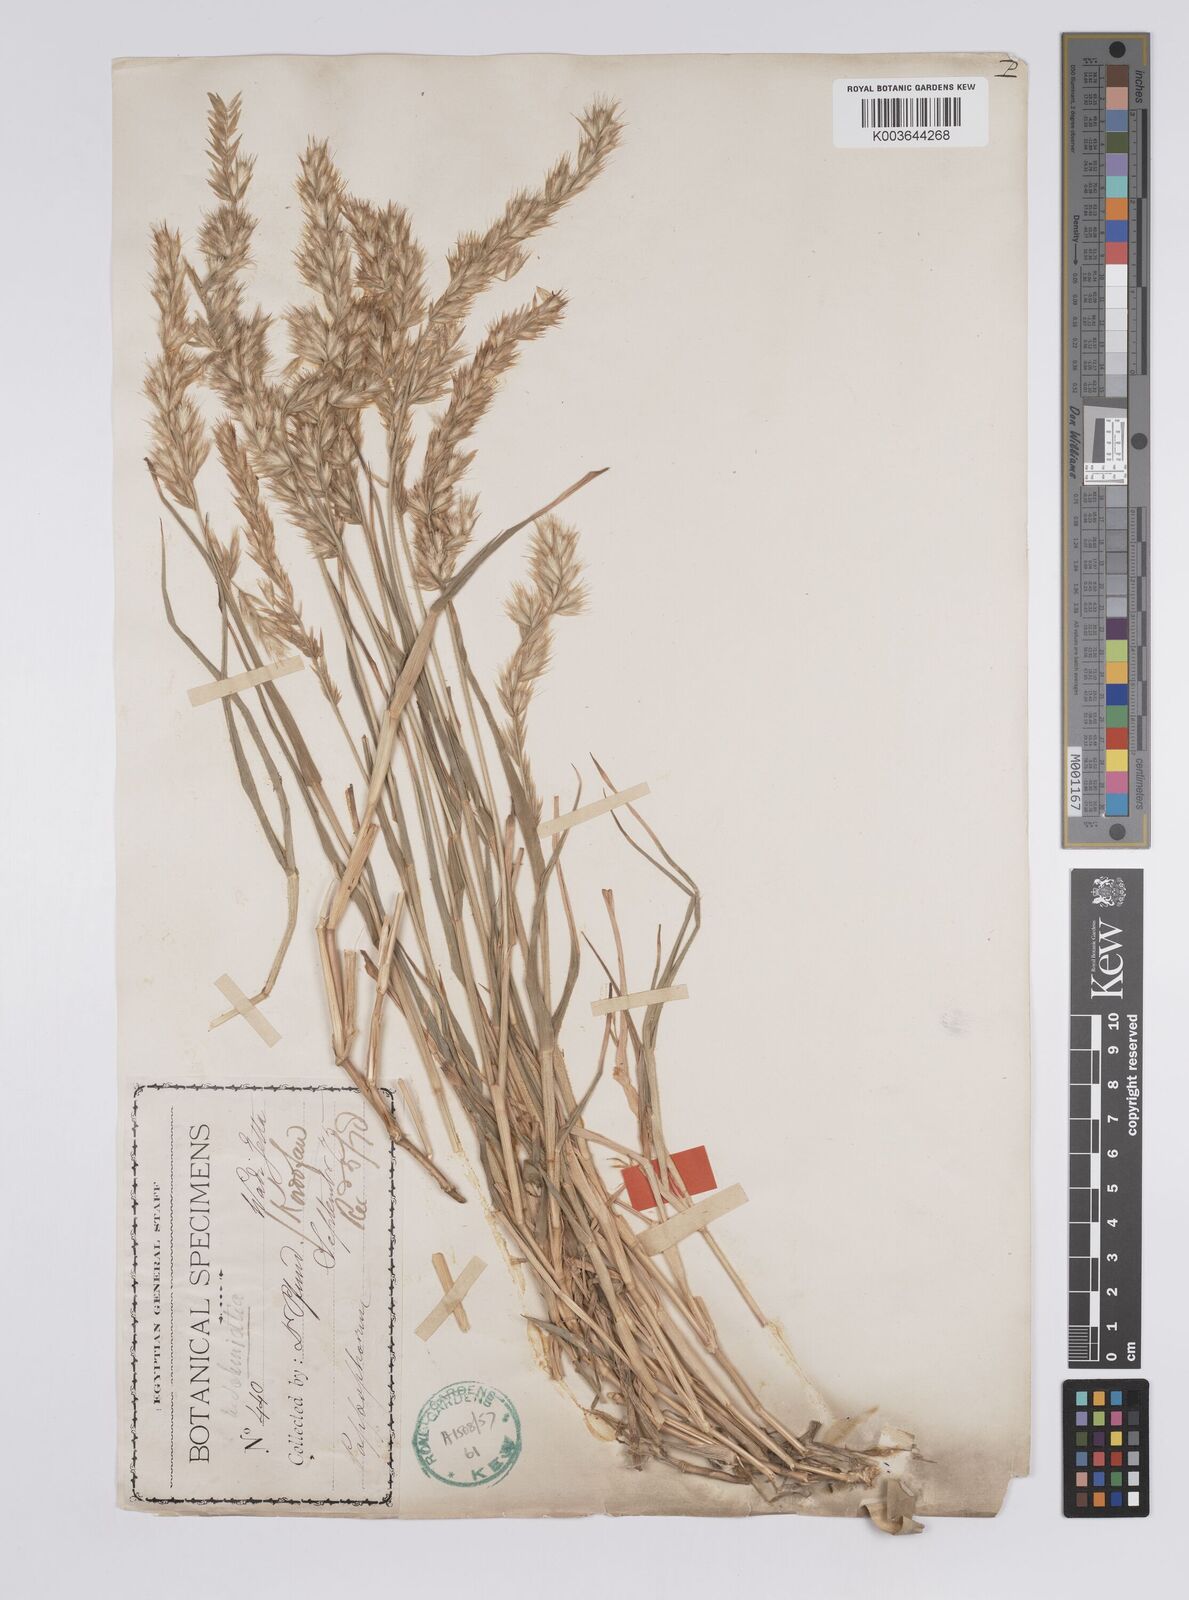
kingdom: Plantae
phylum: Tracheophyta
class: Liliopsida
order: Poales
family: Poaceae
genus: Schmidtia
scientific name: Schmidtia kalahariensis
